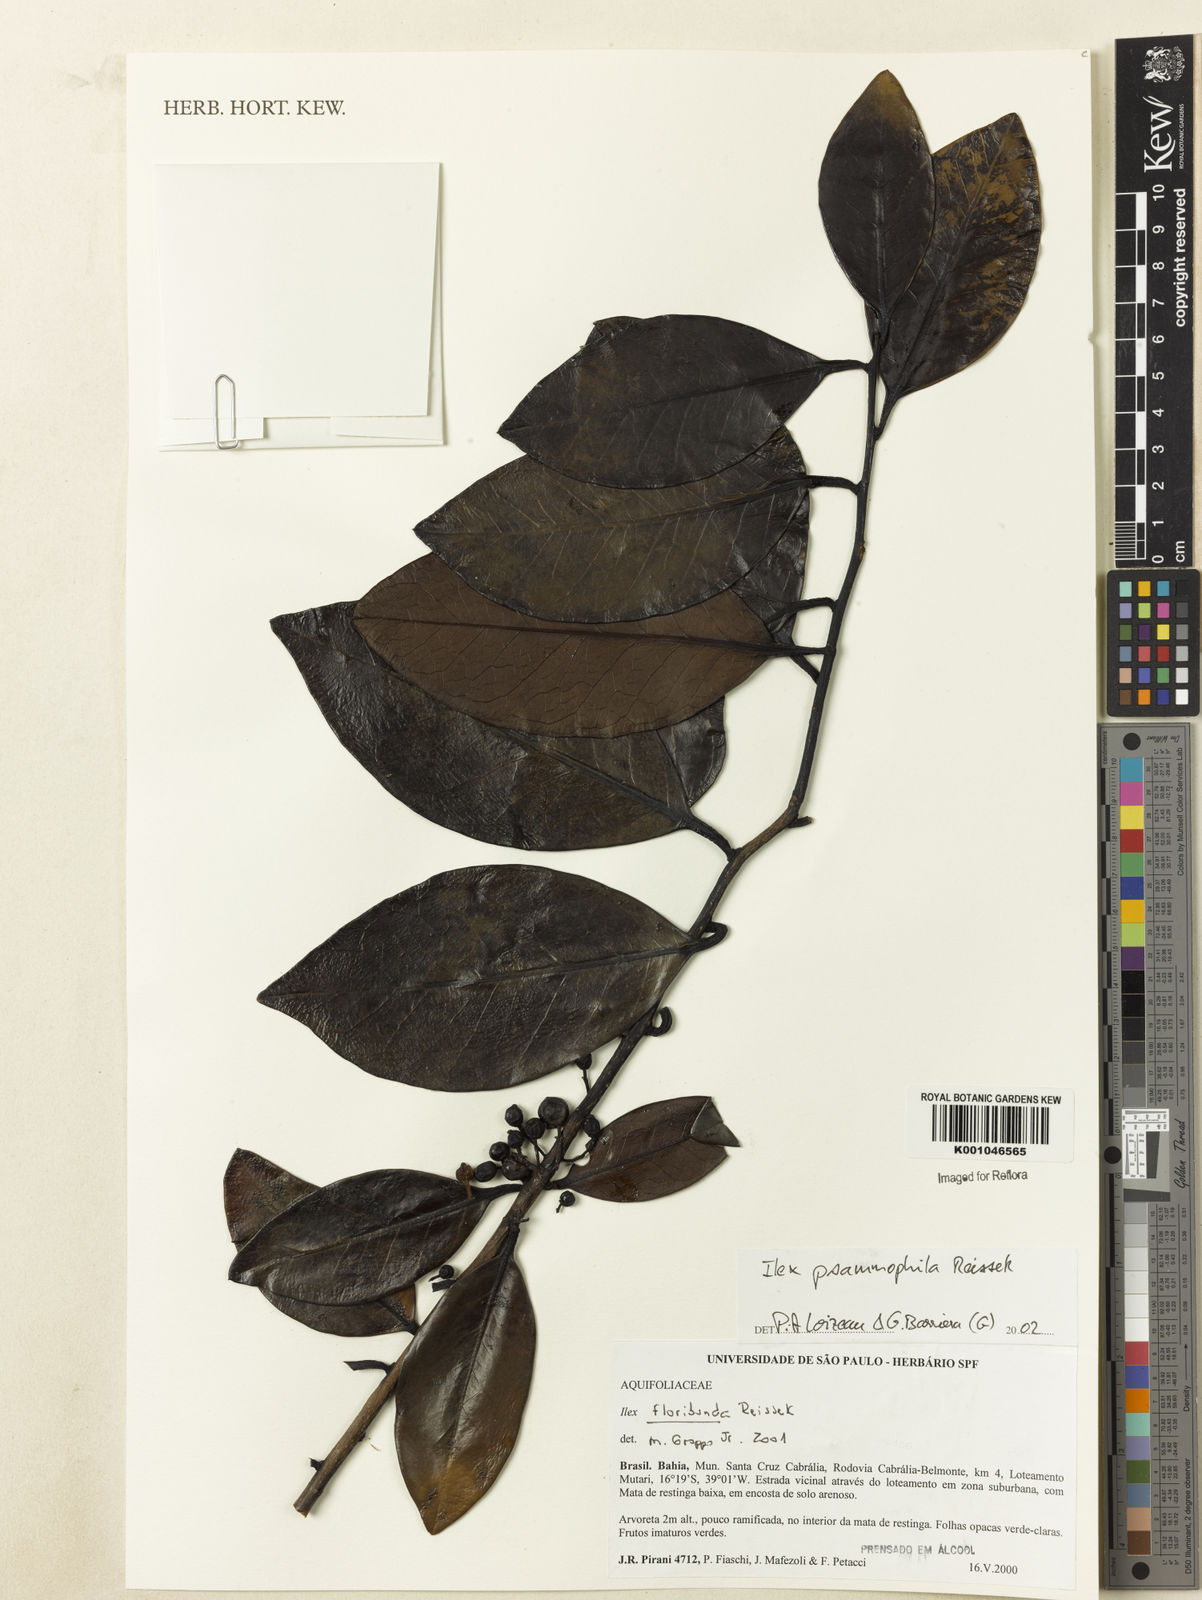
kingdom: Plantae
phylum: Tracheophyta
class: Magnoliopsida
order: Aquifoliales
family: Aquifoliaceae
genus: Ilex
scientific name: Ilex psammophila
